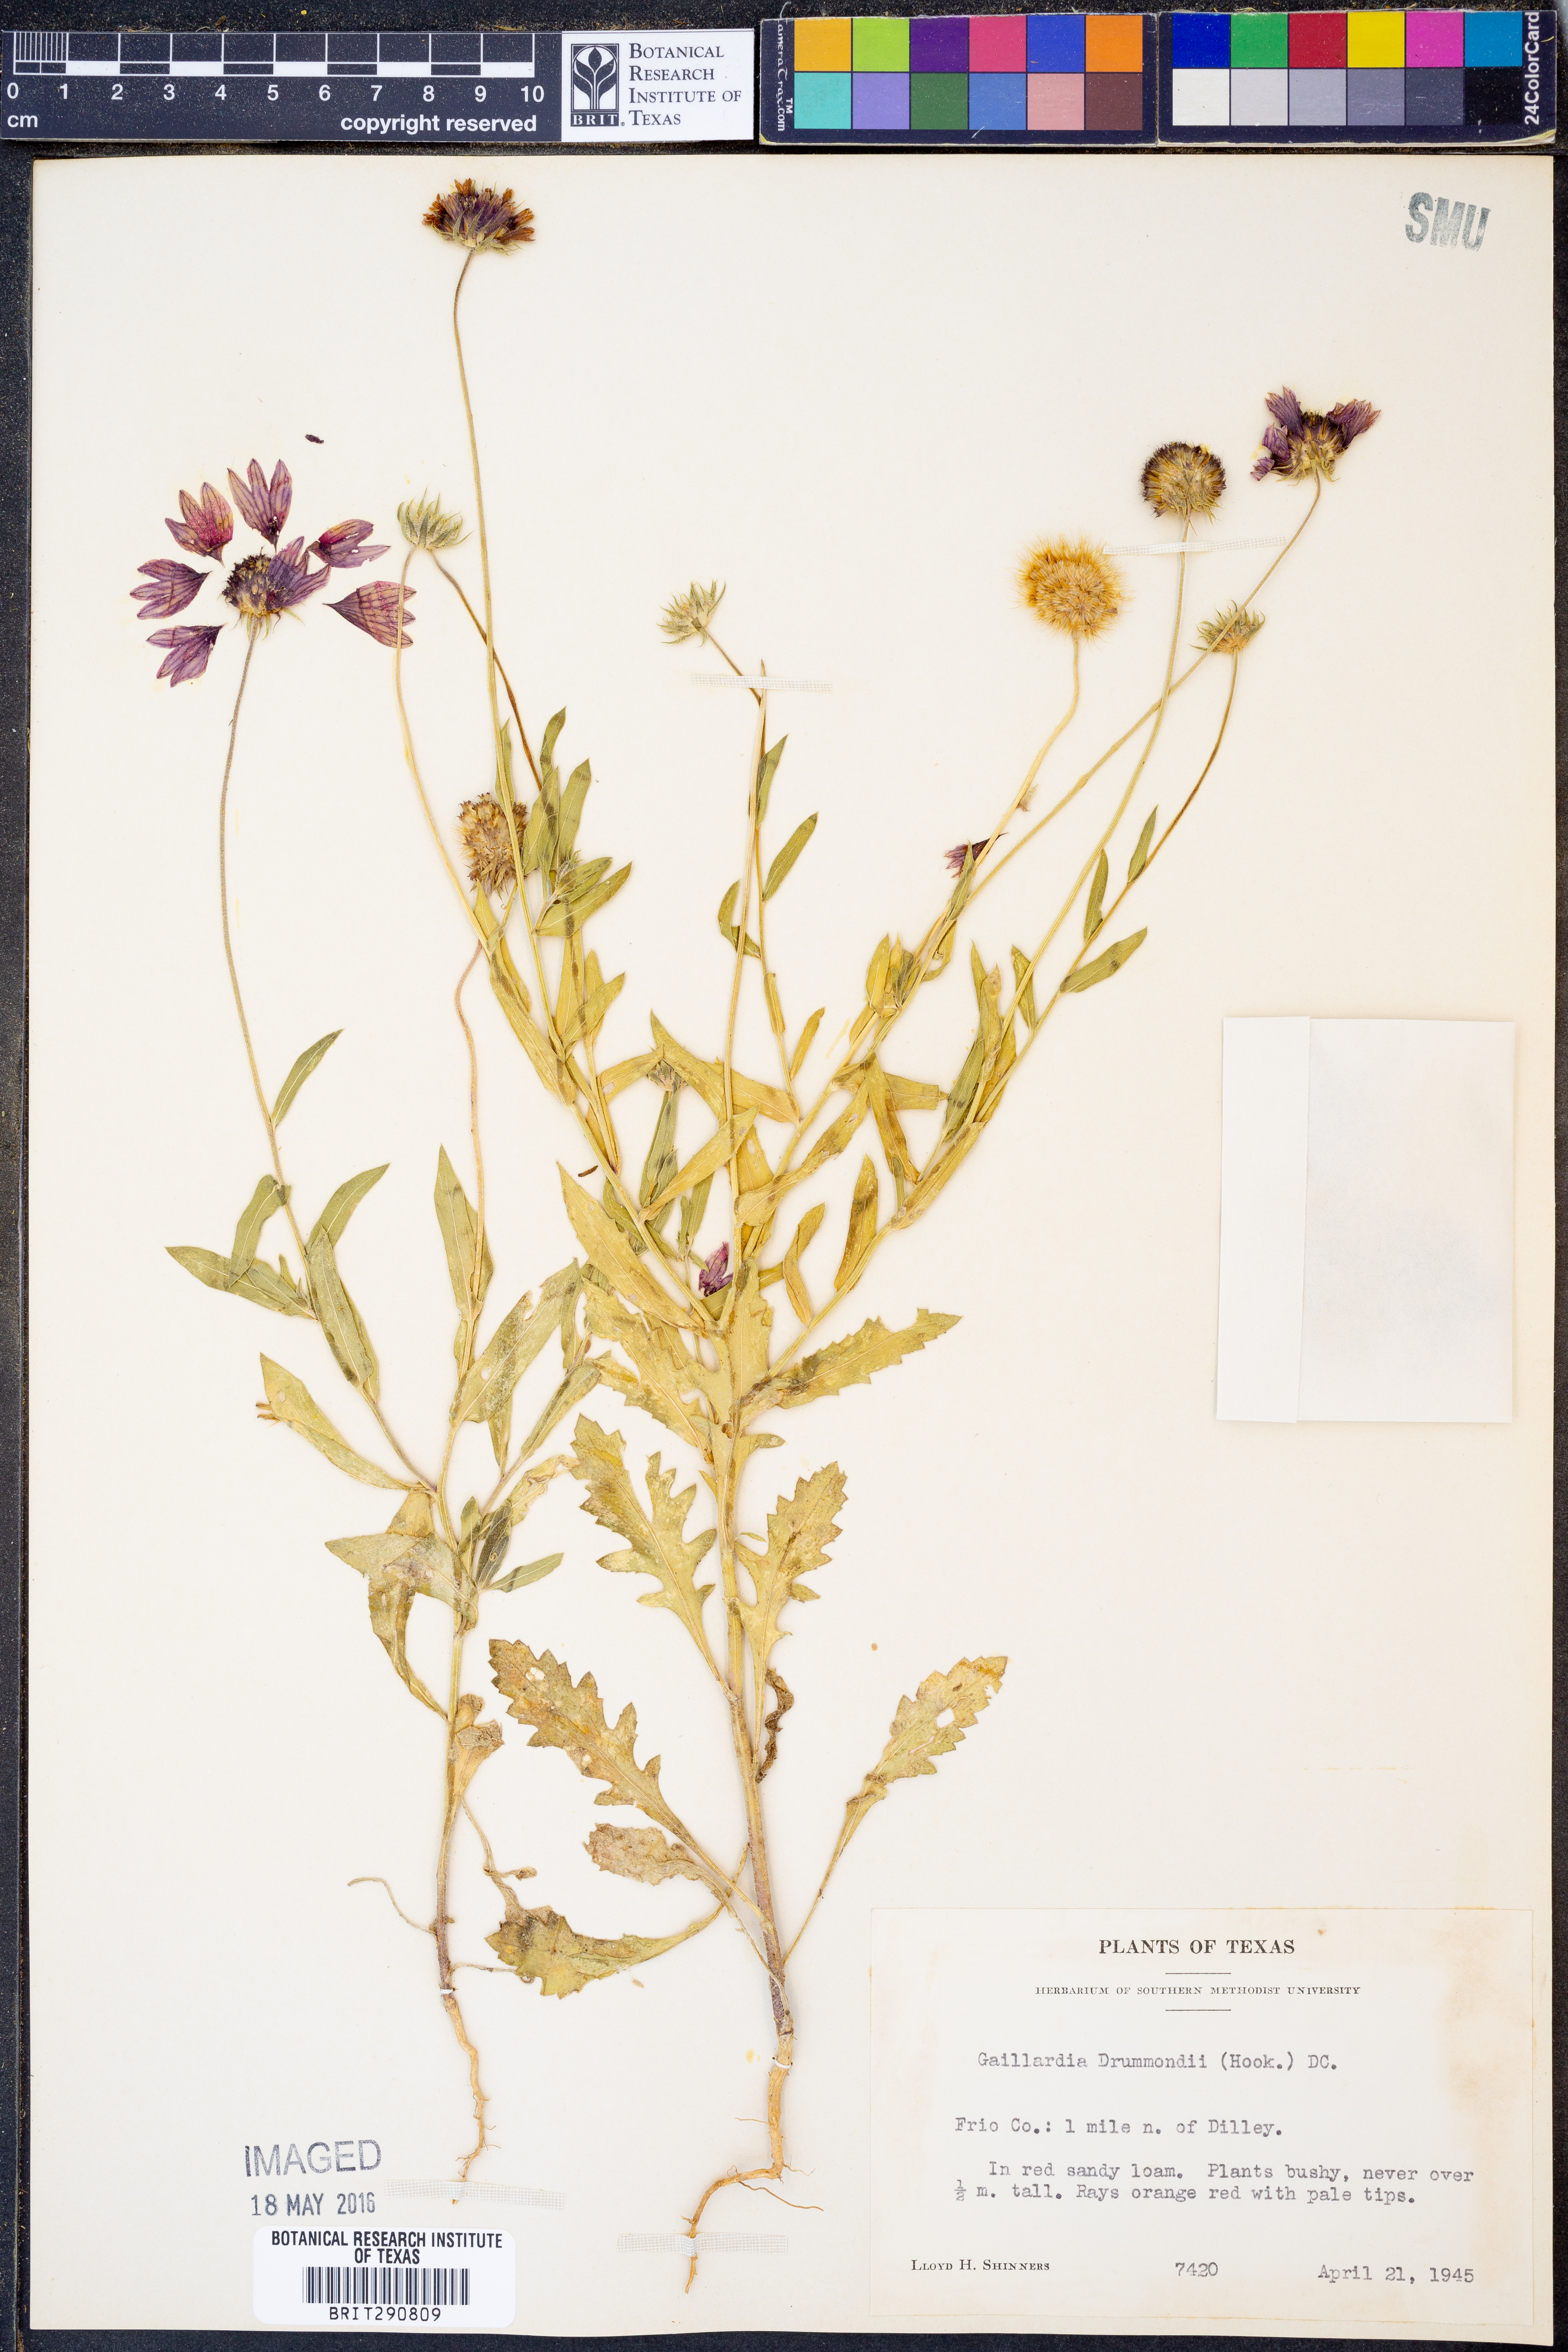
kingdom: Plantae
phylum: Tracheophyta
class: Magnoliopsida
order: Asterales
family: Asteraceae
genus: Gaillardia
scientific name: Gaillardia pulchella
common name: Firewheel
